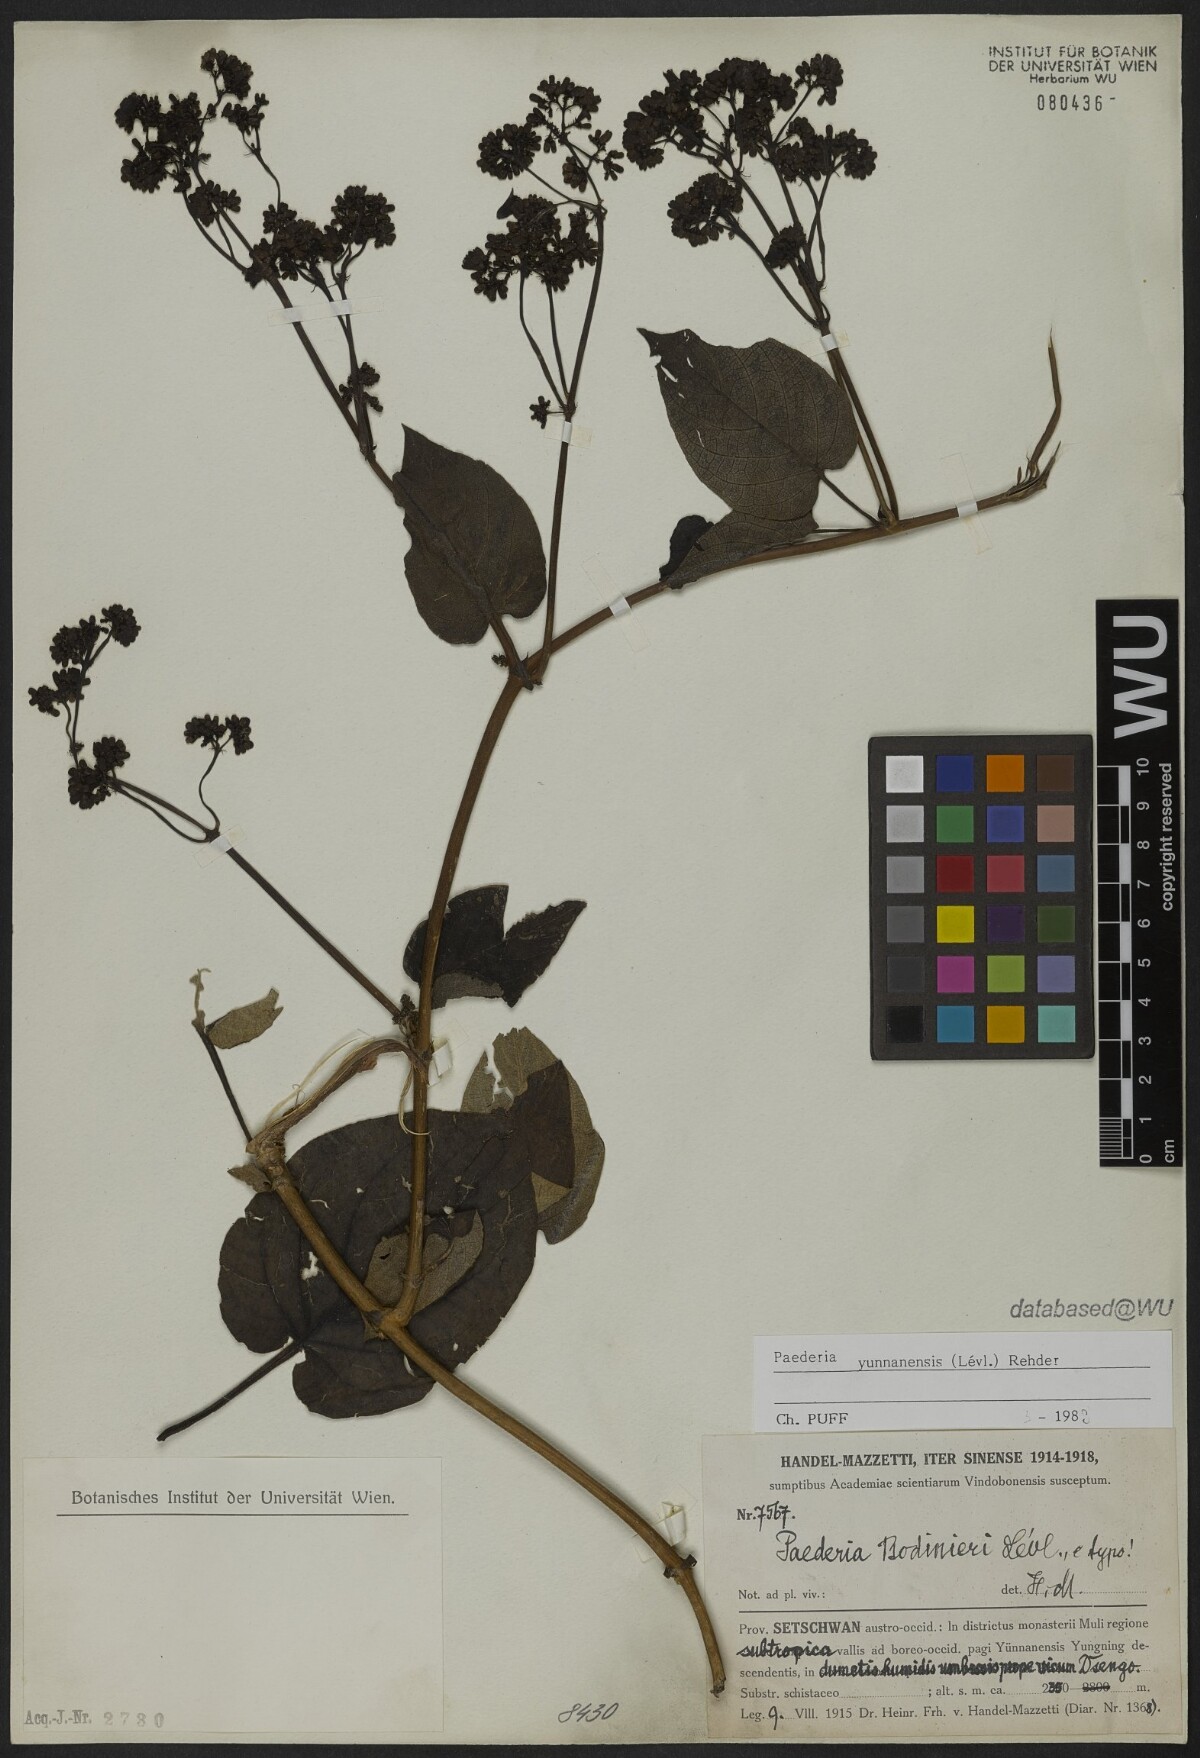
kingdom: Plantae
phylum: Tracheophyta
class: Magnoliopsida
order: Gentianales
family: Rubiaceae
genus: Paederia
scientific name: Paederia yunnanensis
